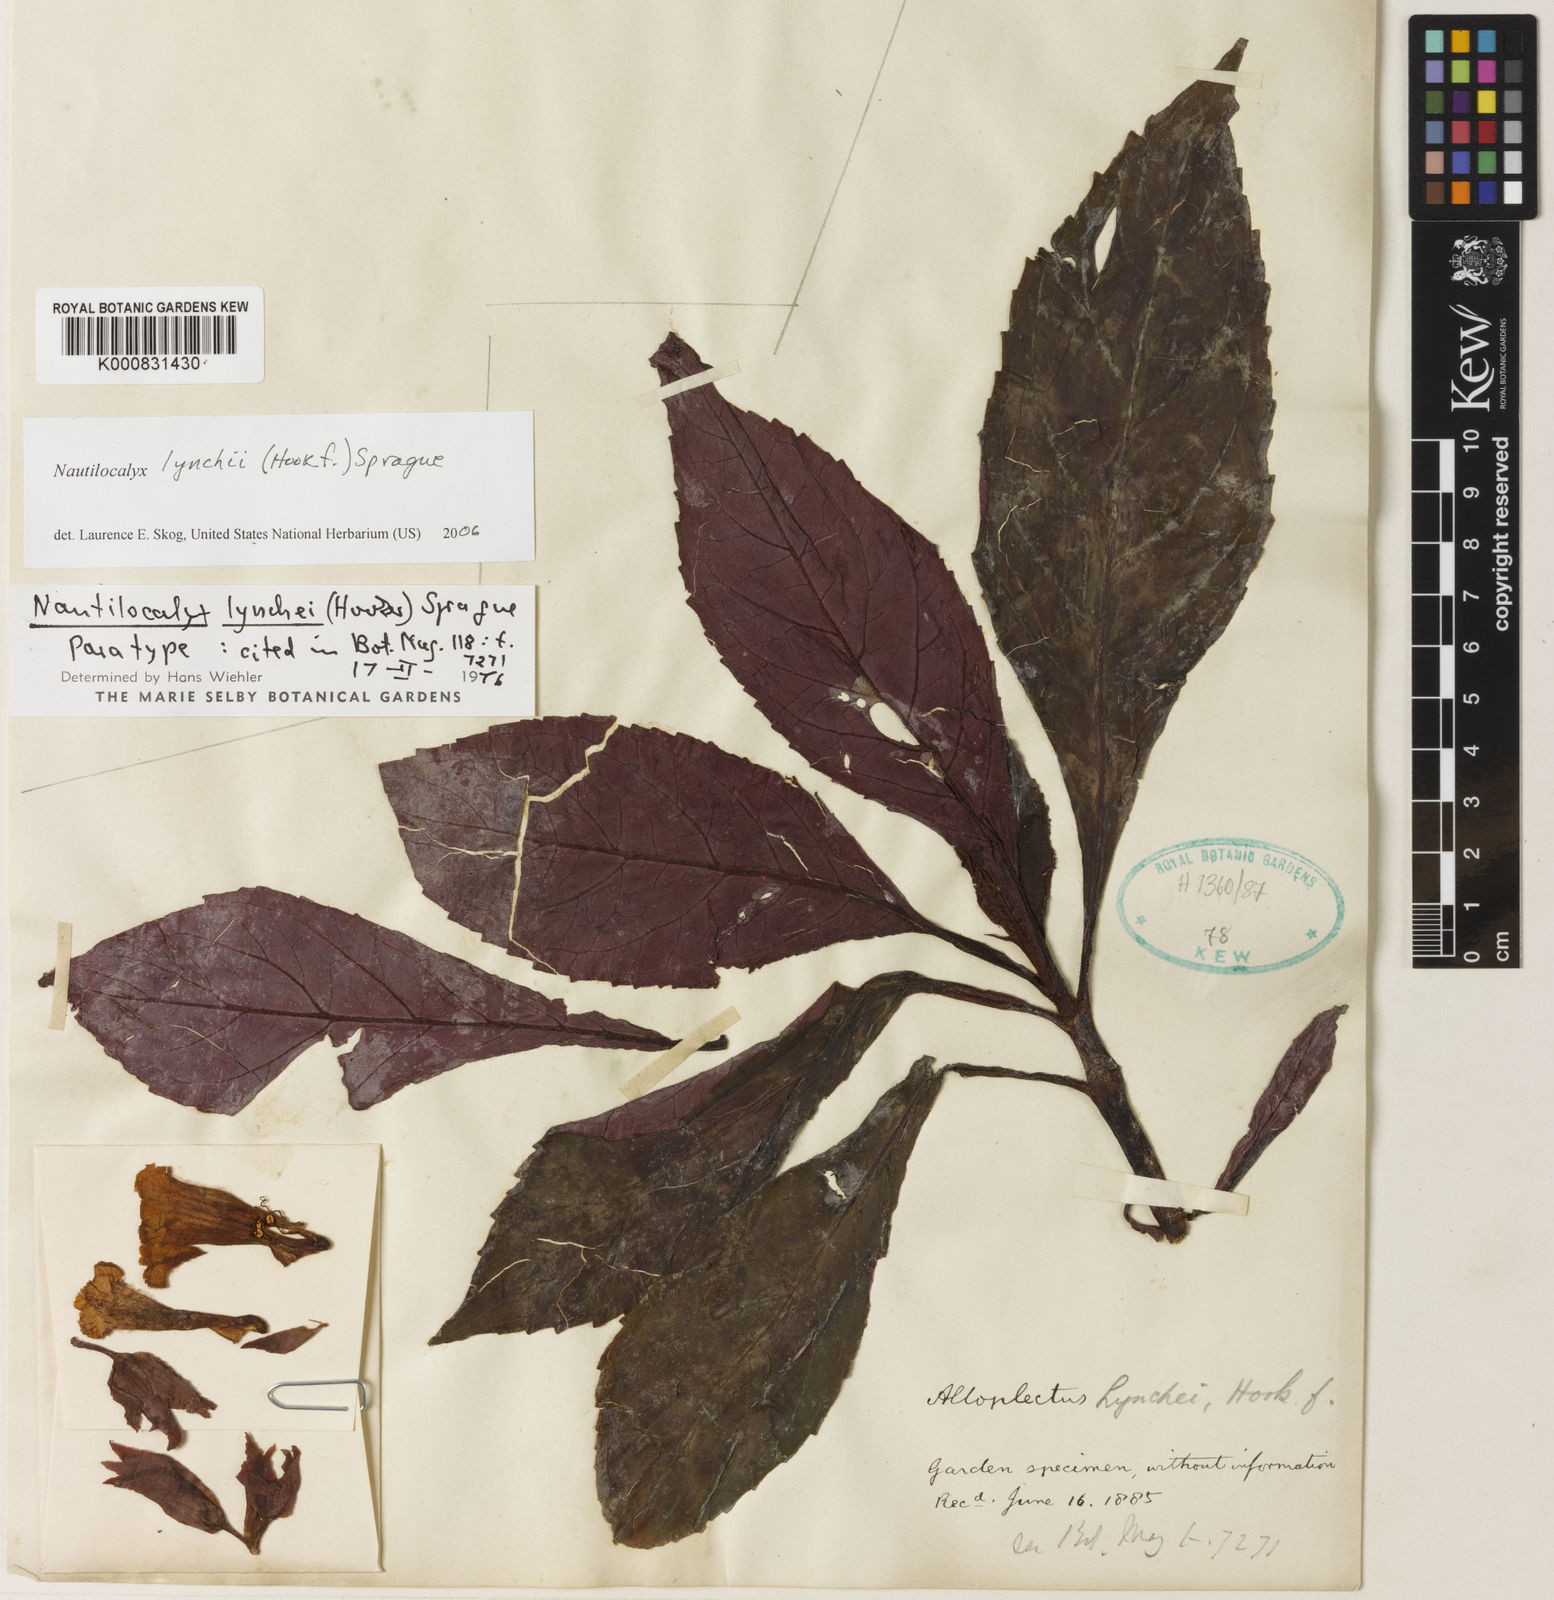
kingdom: Plantae
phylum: Tracheophyta
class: Magnoliopsida
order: Lamiales
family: Gesneriaceae
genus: Nautilocalyx
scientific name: Nautilocalyx lynchii
